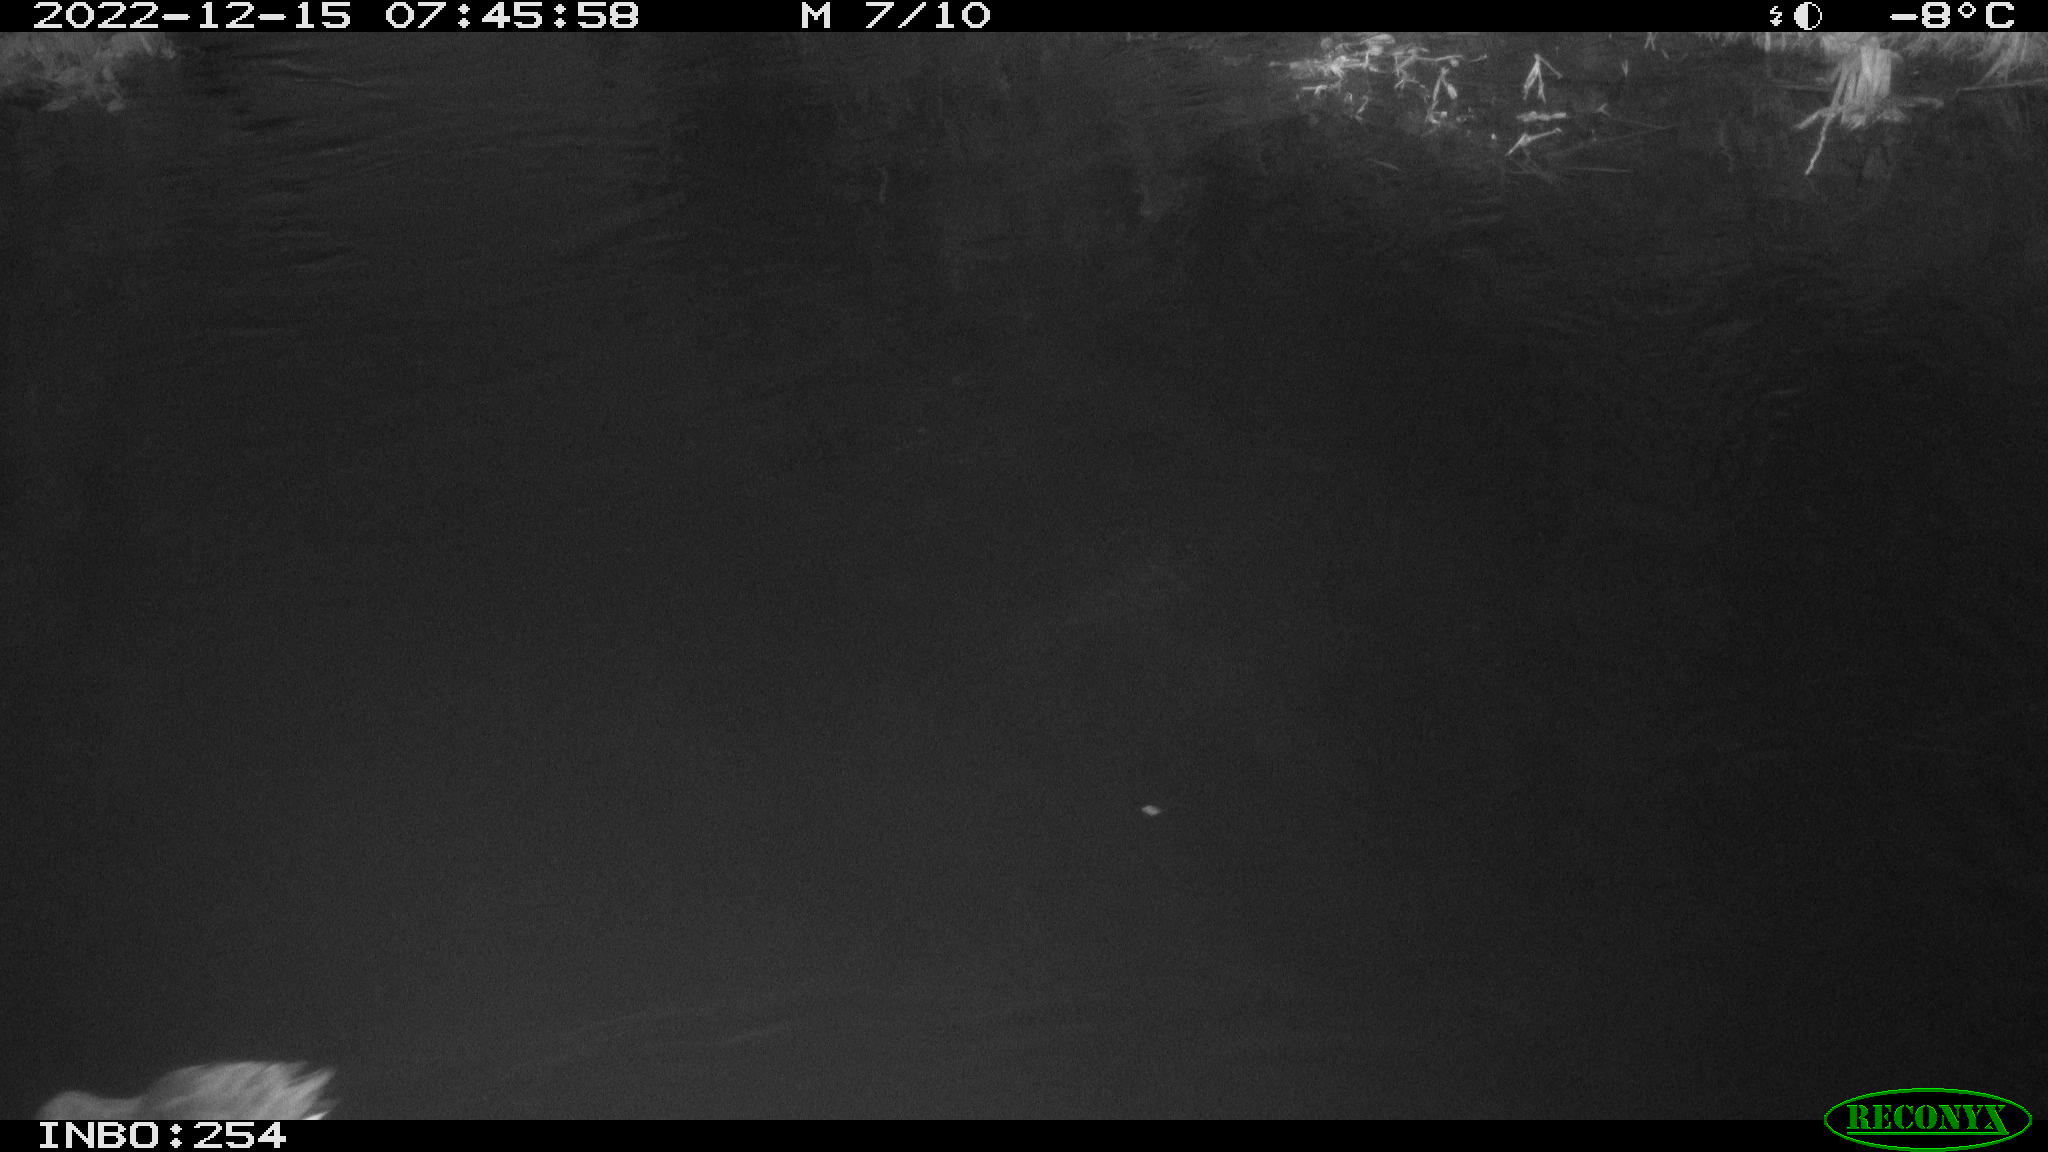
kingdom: Animalia
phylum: Chordata
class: Aves
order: Gruiformes
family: Rallidae
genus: Fulica
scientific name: Fulica atra
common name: Eurasian coot
